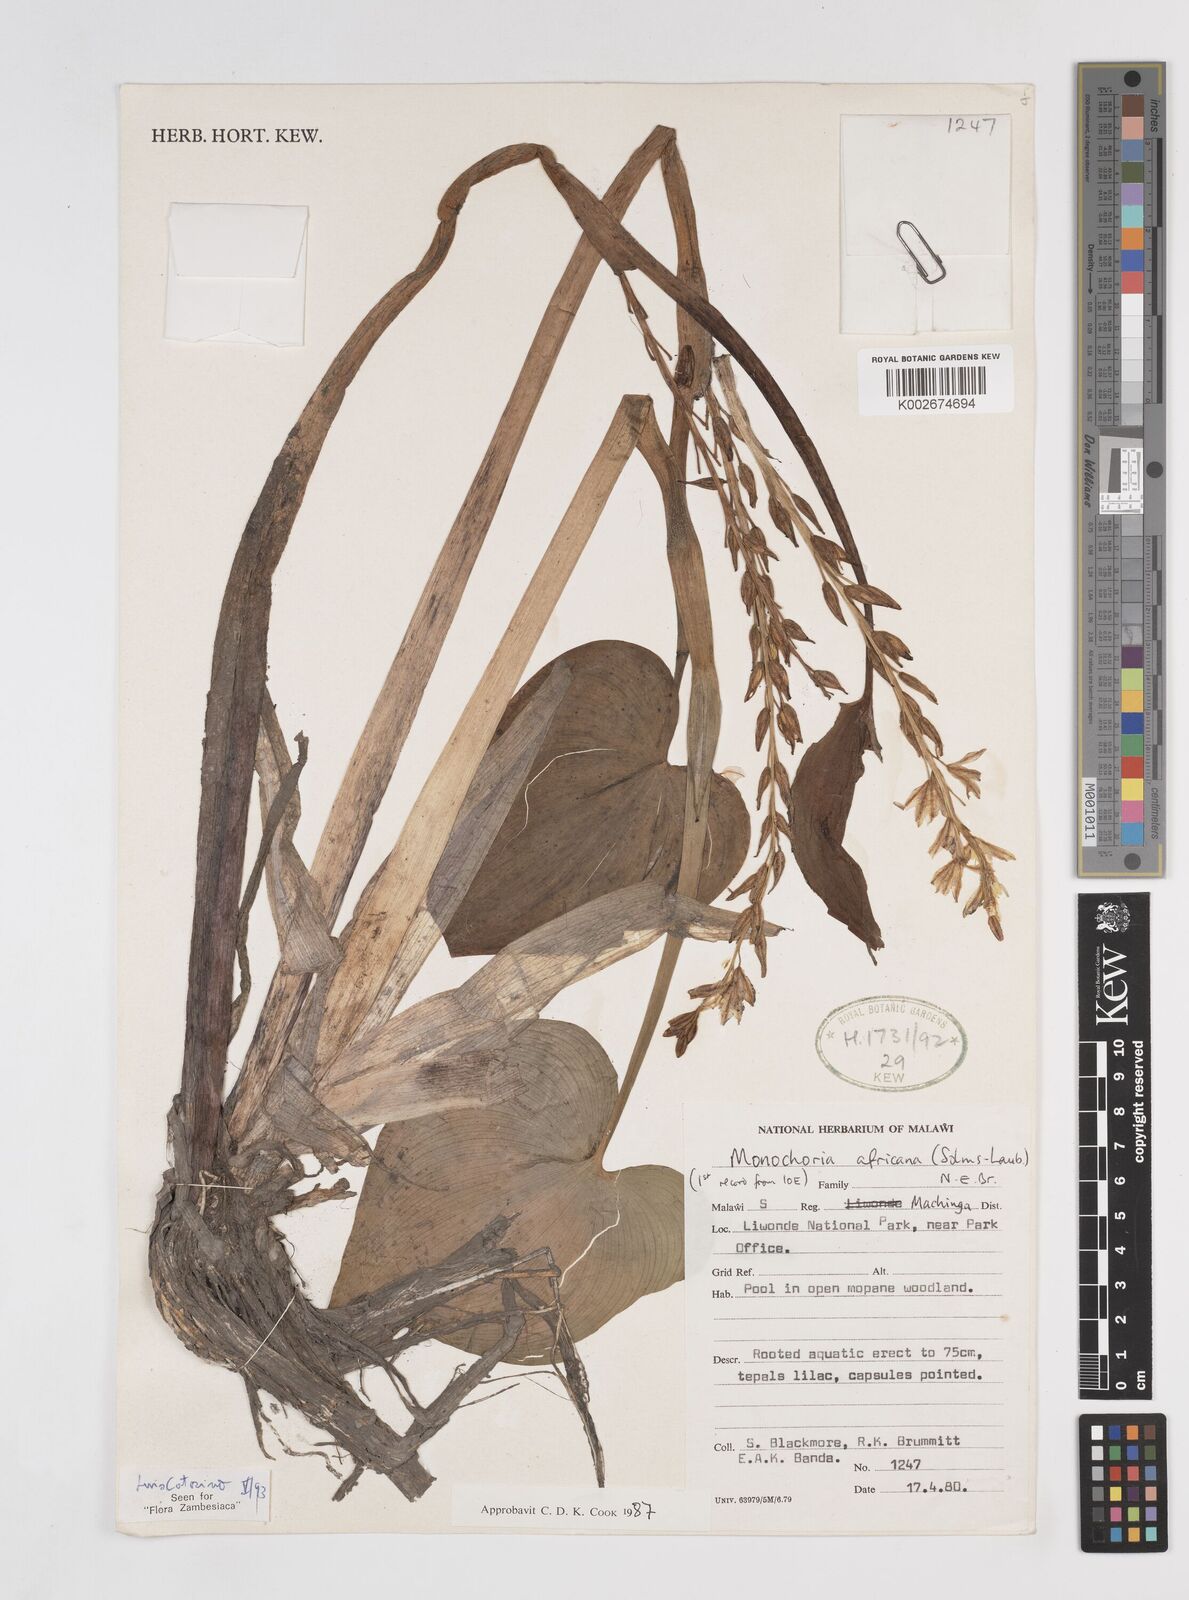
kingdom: Plantae
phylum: Tracheophyta
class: Liliopsida
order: Commelinales
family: Pontederiaceae
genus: Pontederia
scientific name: Pontederia africana
